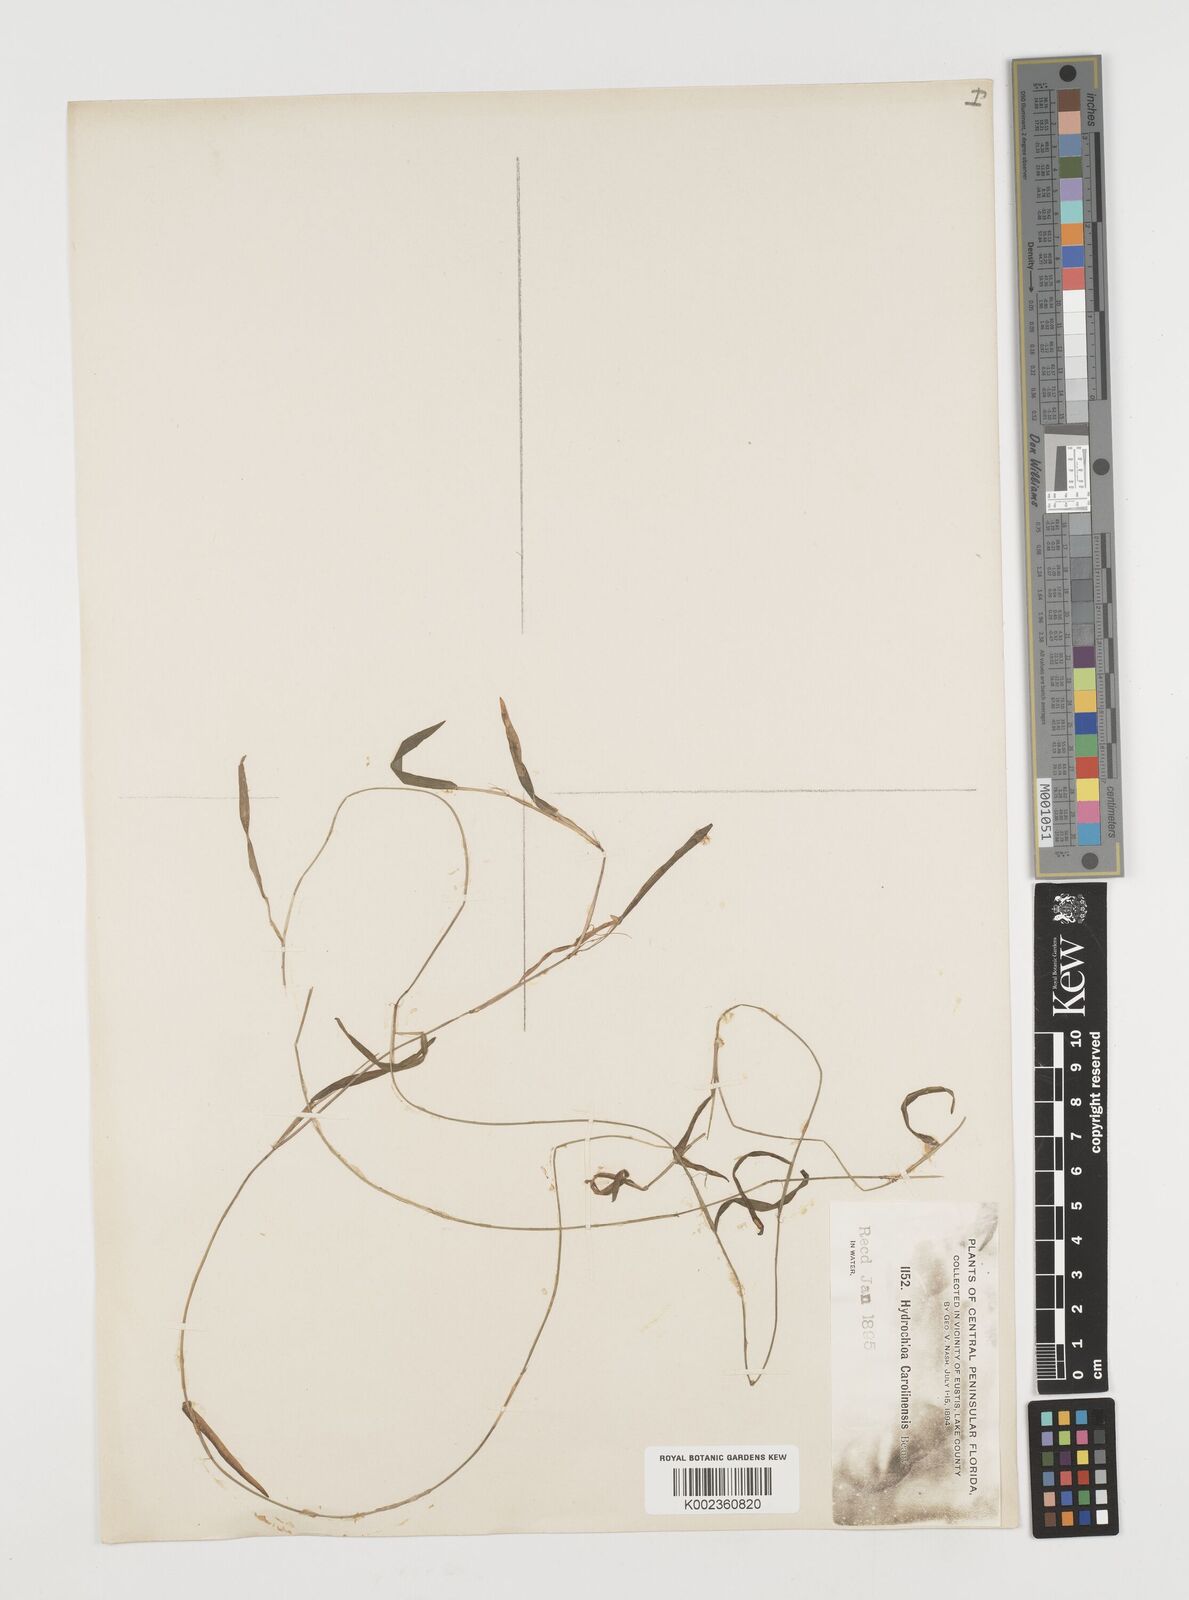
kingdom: Plantae
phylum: Tracheophyta
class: Liliopsida
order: Poales
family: Poaceae
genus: Luziola
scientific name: Luziola fluitans
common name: Silverleaf grass
